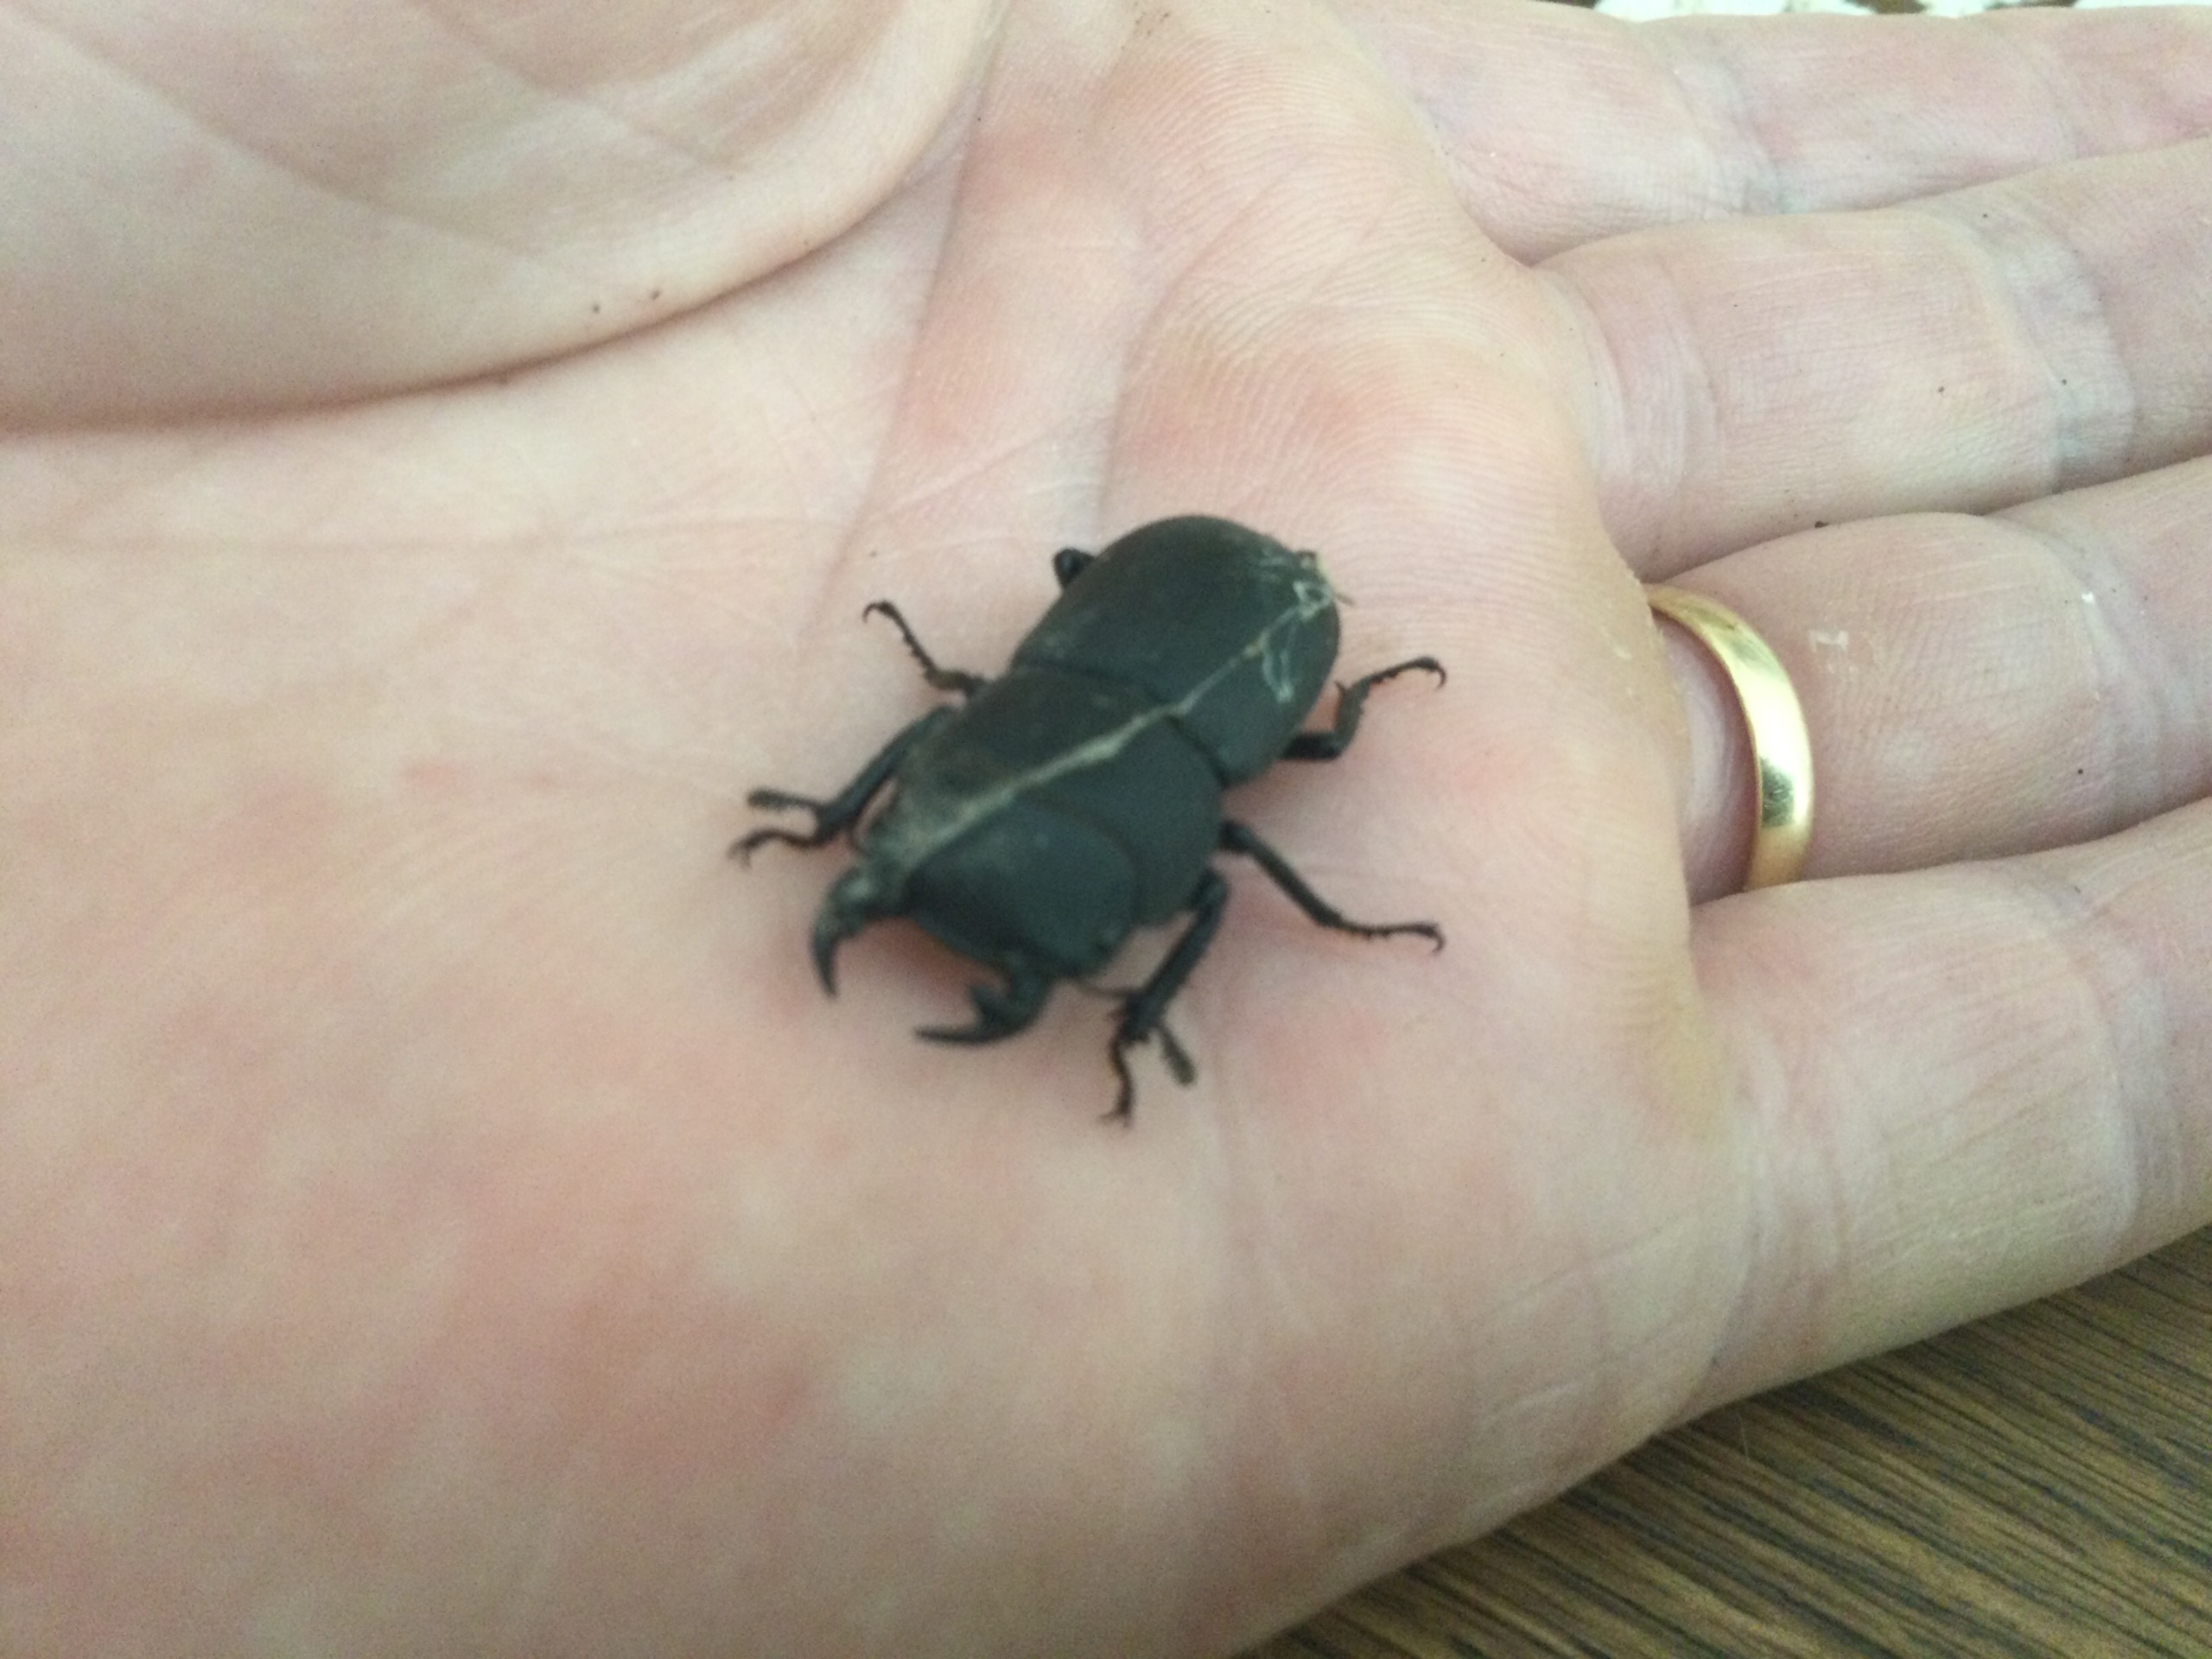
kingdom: Animalia
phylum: Arthropoda
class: Insecta
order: Coleoptera
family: Lucanidae
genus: Dorcus
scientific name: Dorcus parallelipipedus
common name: Bøghjort
